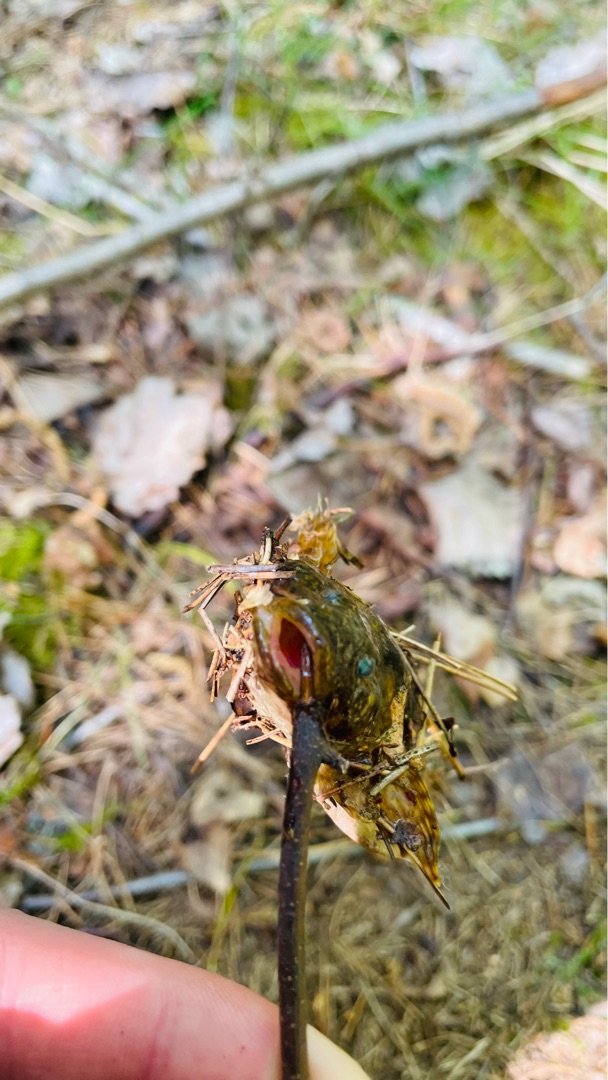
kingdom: Animalia
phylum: Chordata
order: Scorpaeniformes
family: Cottidae
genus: Cottus
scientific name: Cottus poecilopus
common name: Finnestribet ferskvandsulk
